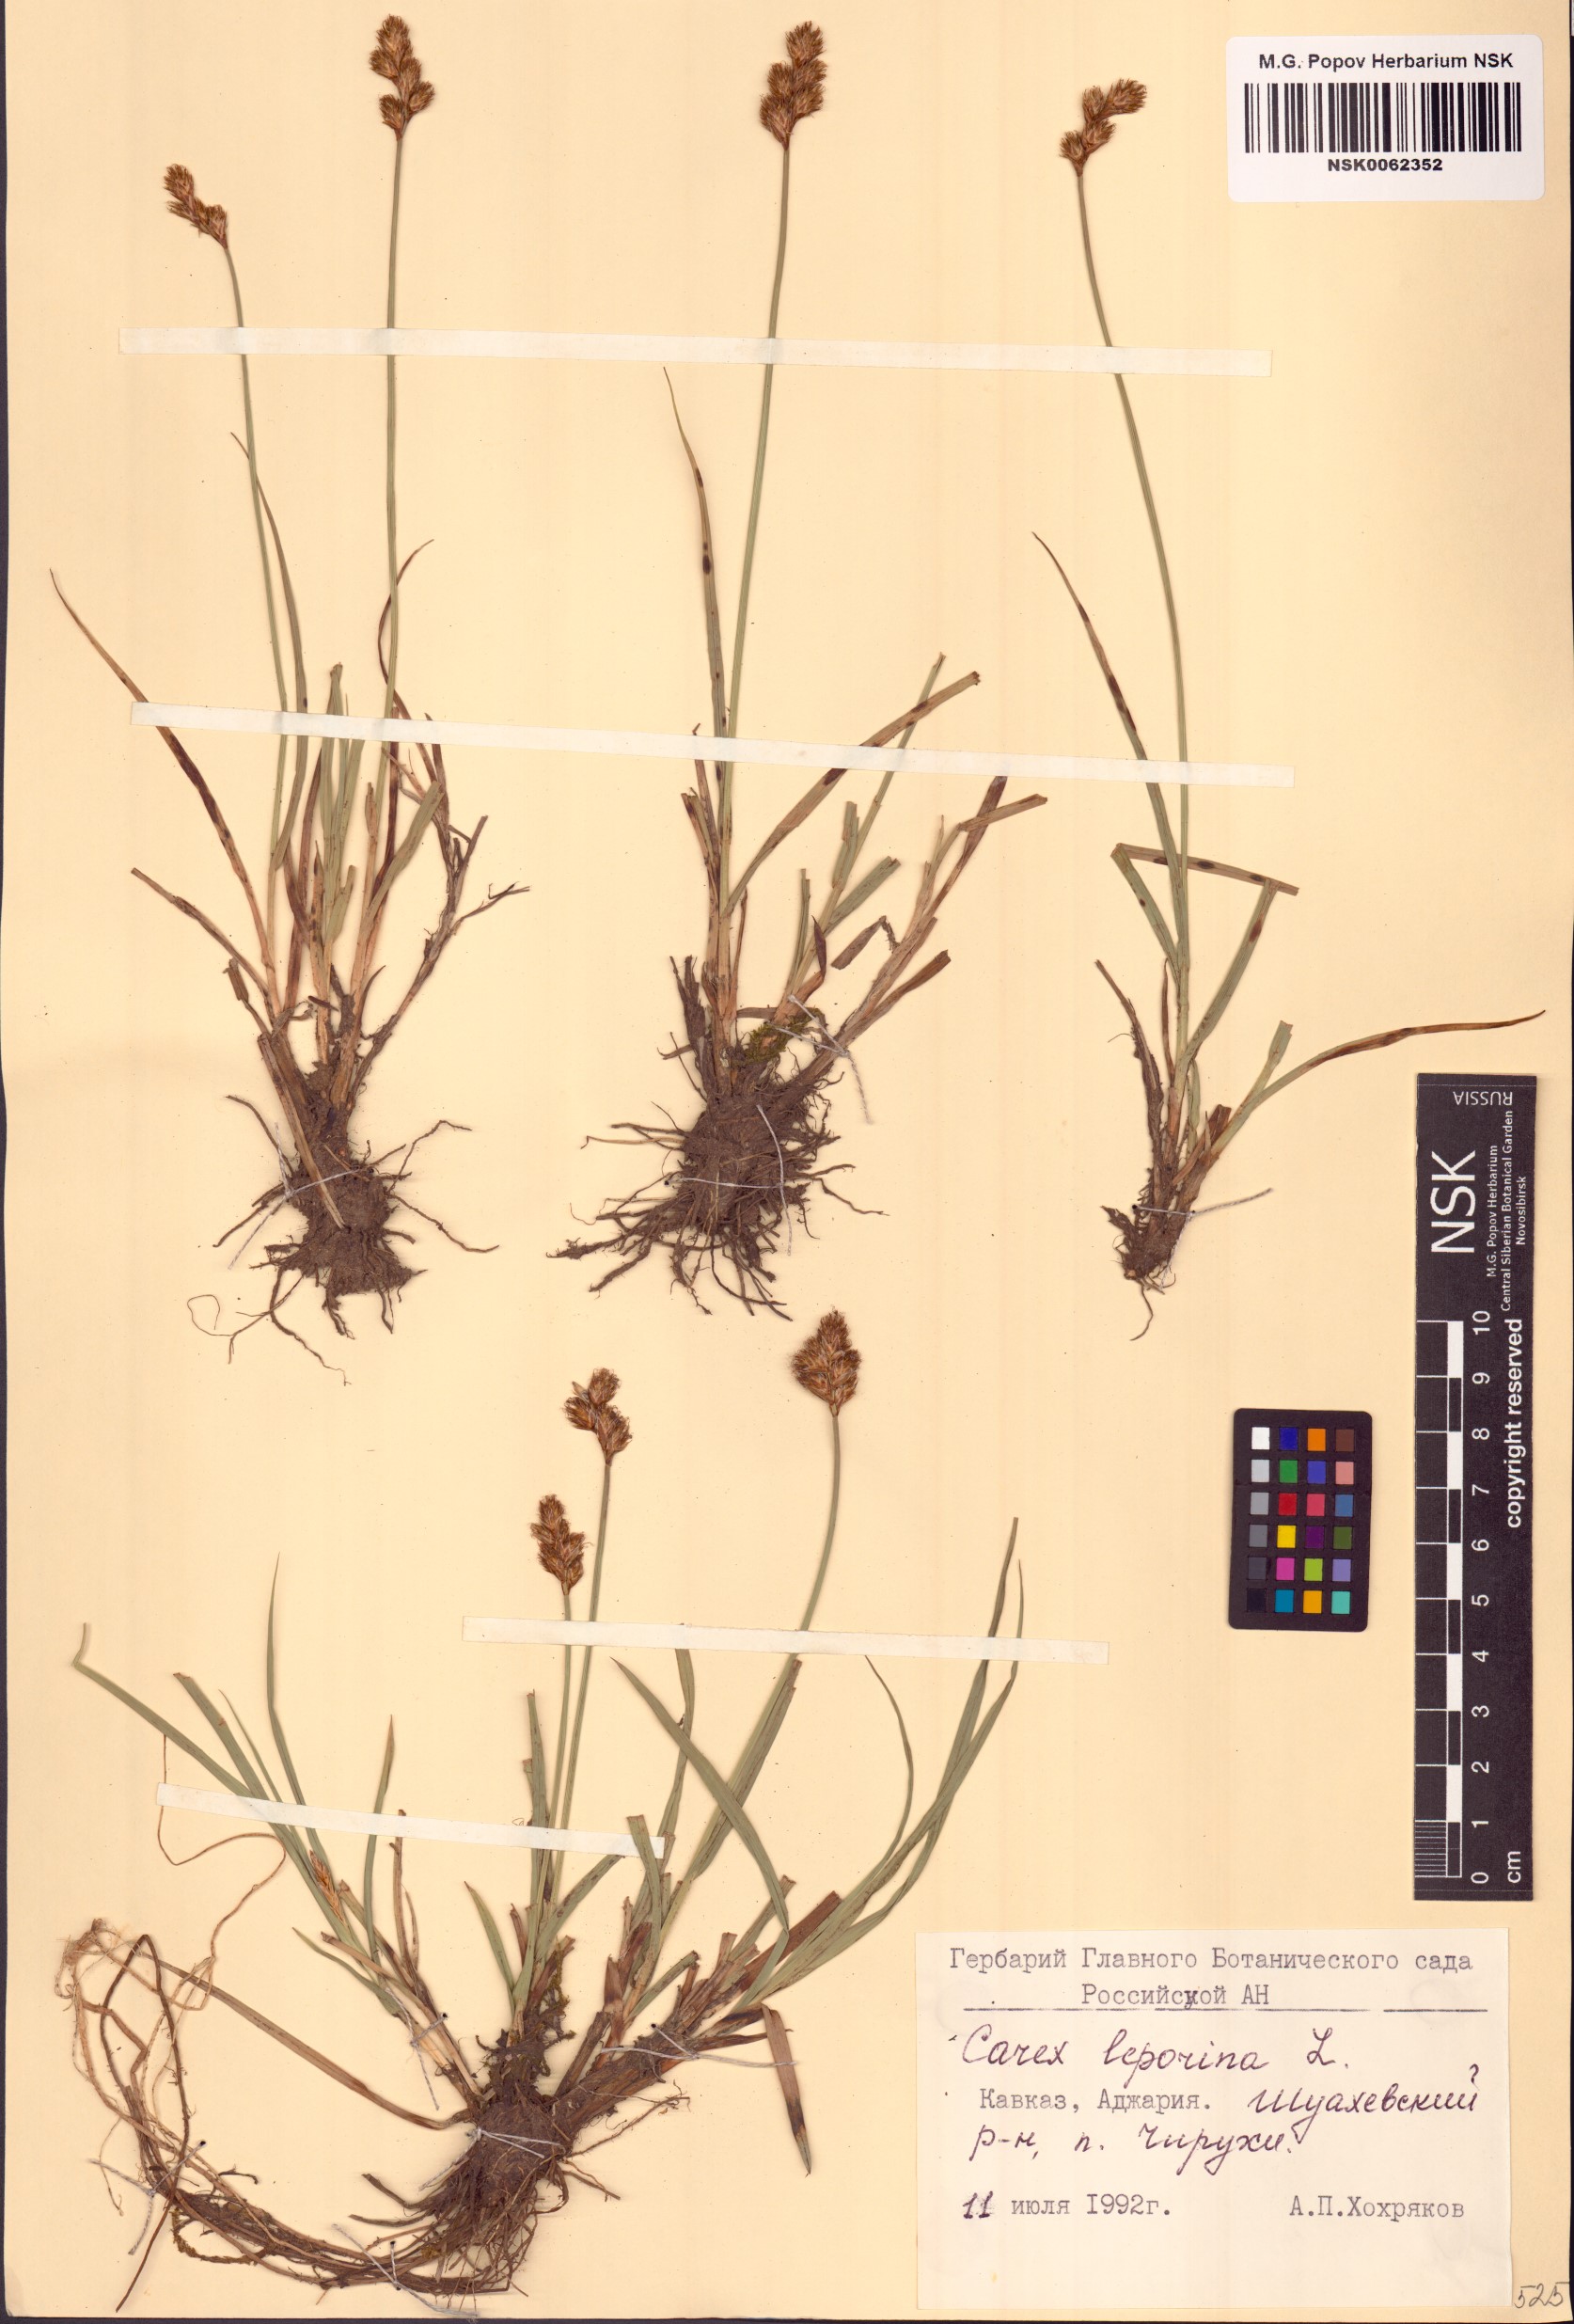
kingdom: Plantae
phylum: Tracheophyta
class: Liliopsida
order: Poales
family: Cyperaceae
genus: Carex
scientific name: Carex leporina
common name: Oval sedge
